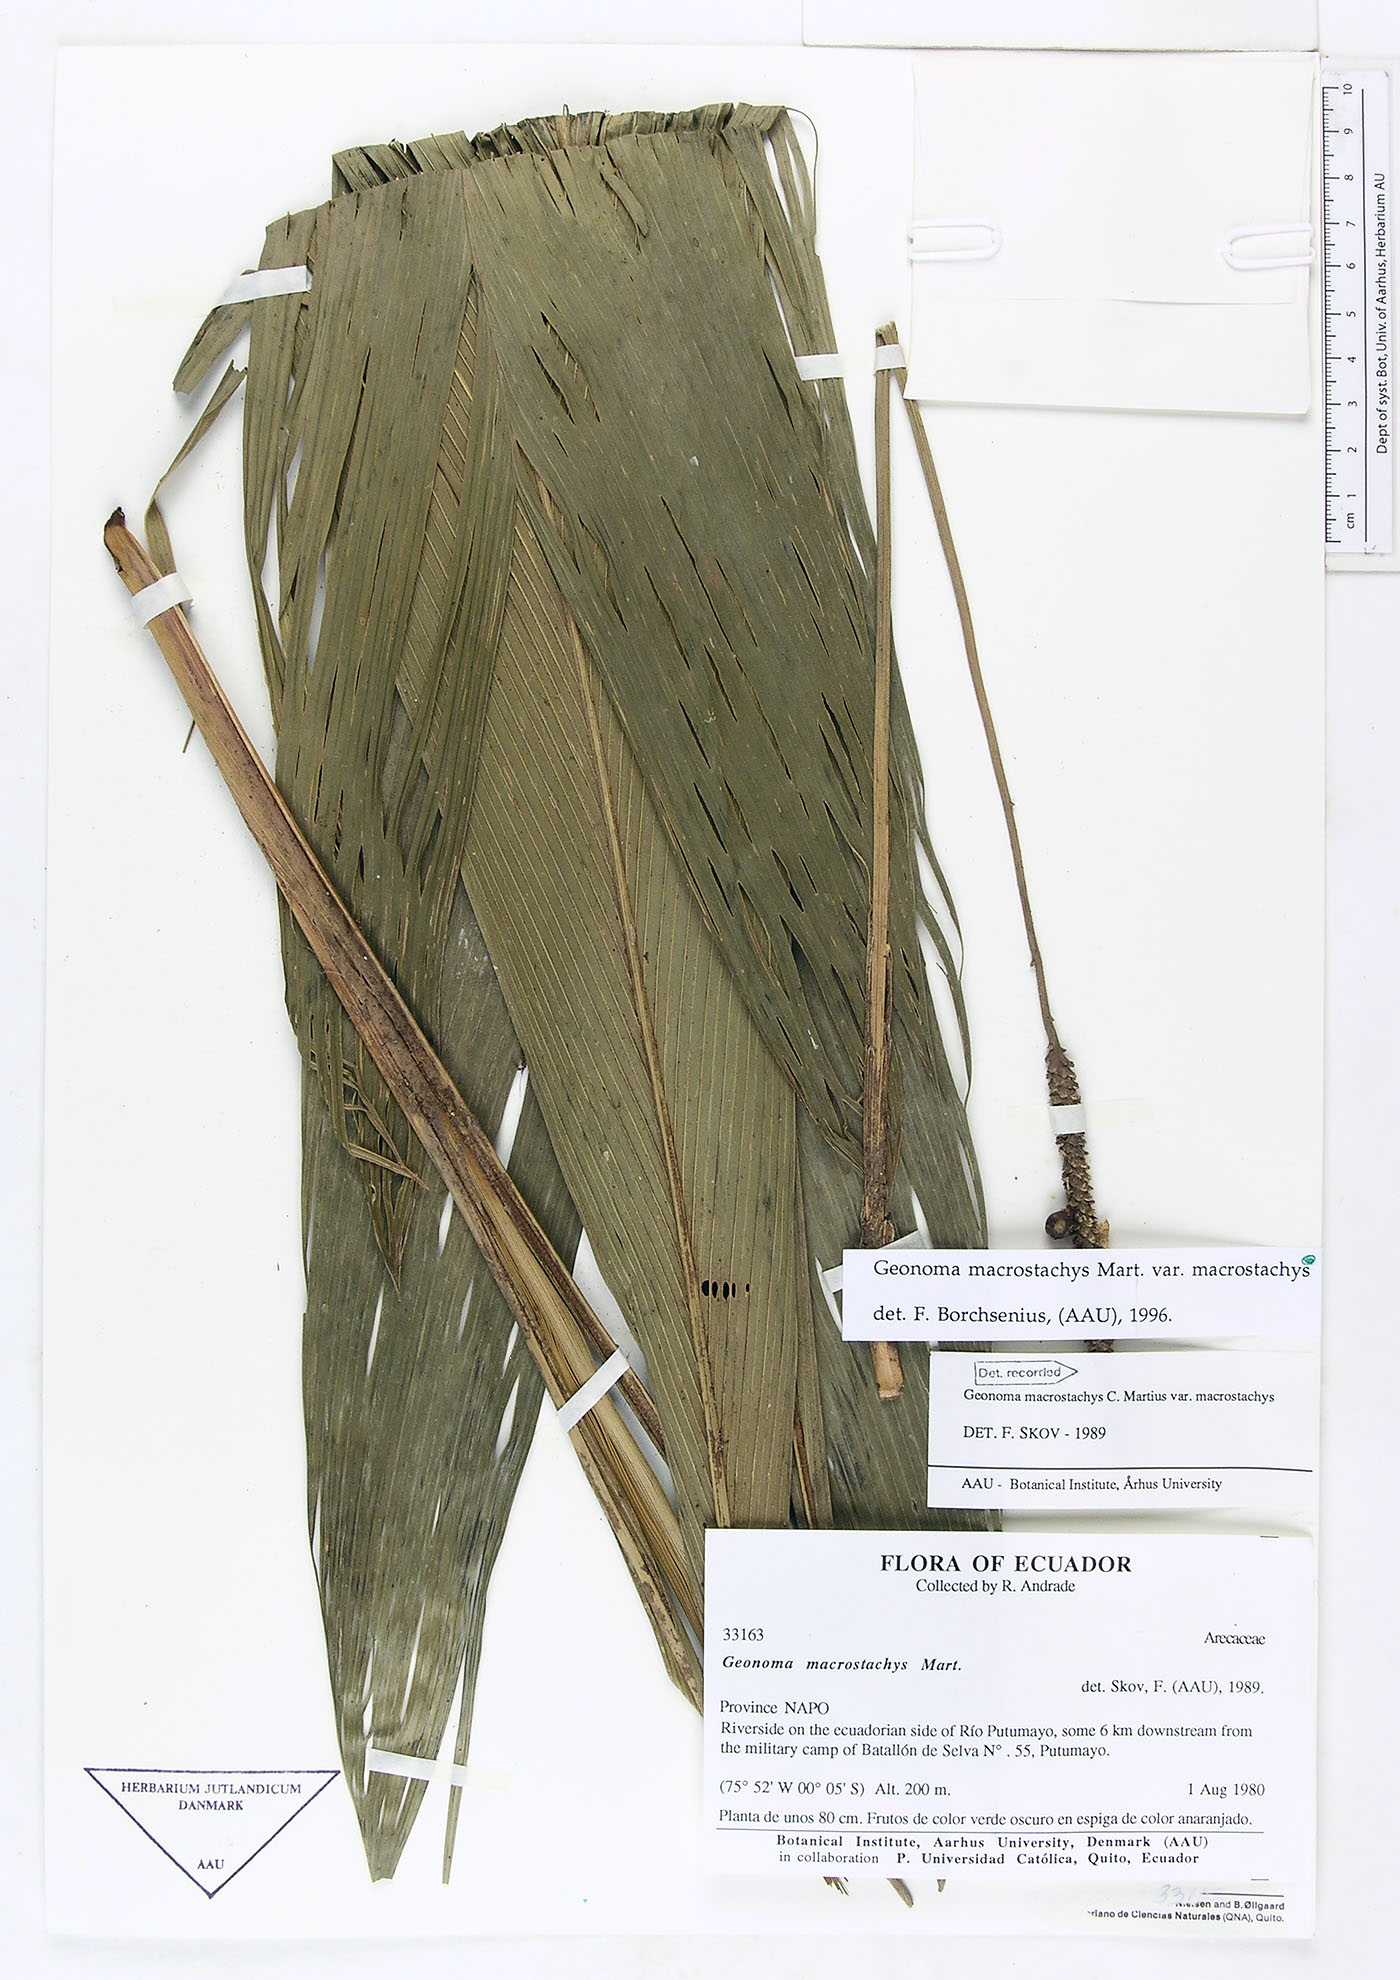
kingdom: Plantae
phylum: Tracheophyta
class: Liliopsida
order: Arecales
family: Arecaceae
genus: Geonoma
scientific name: Geonoma macrostachys
